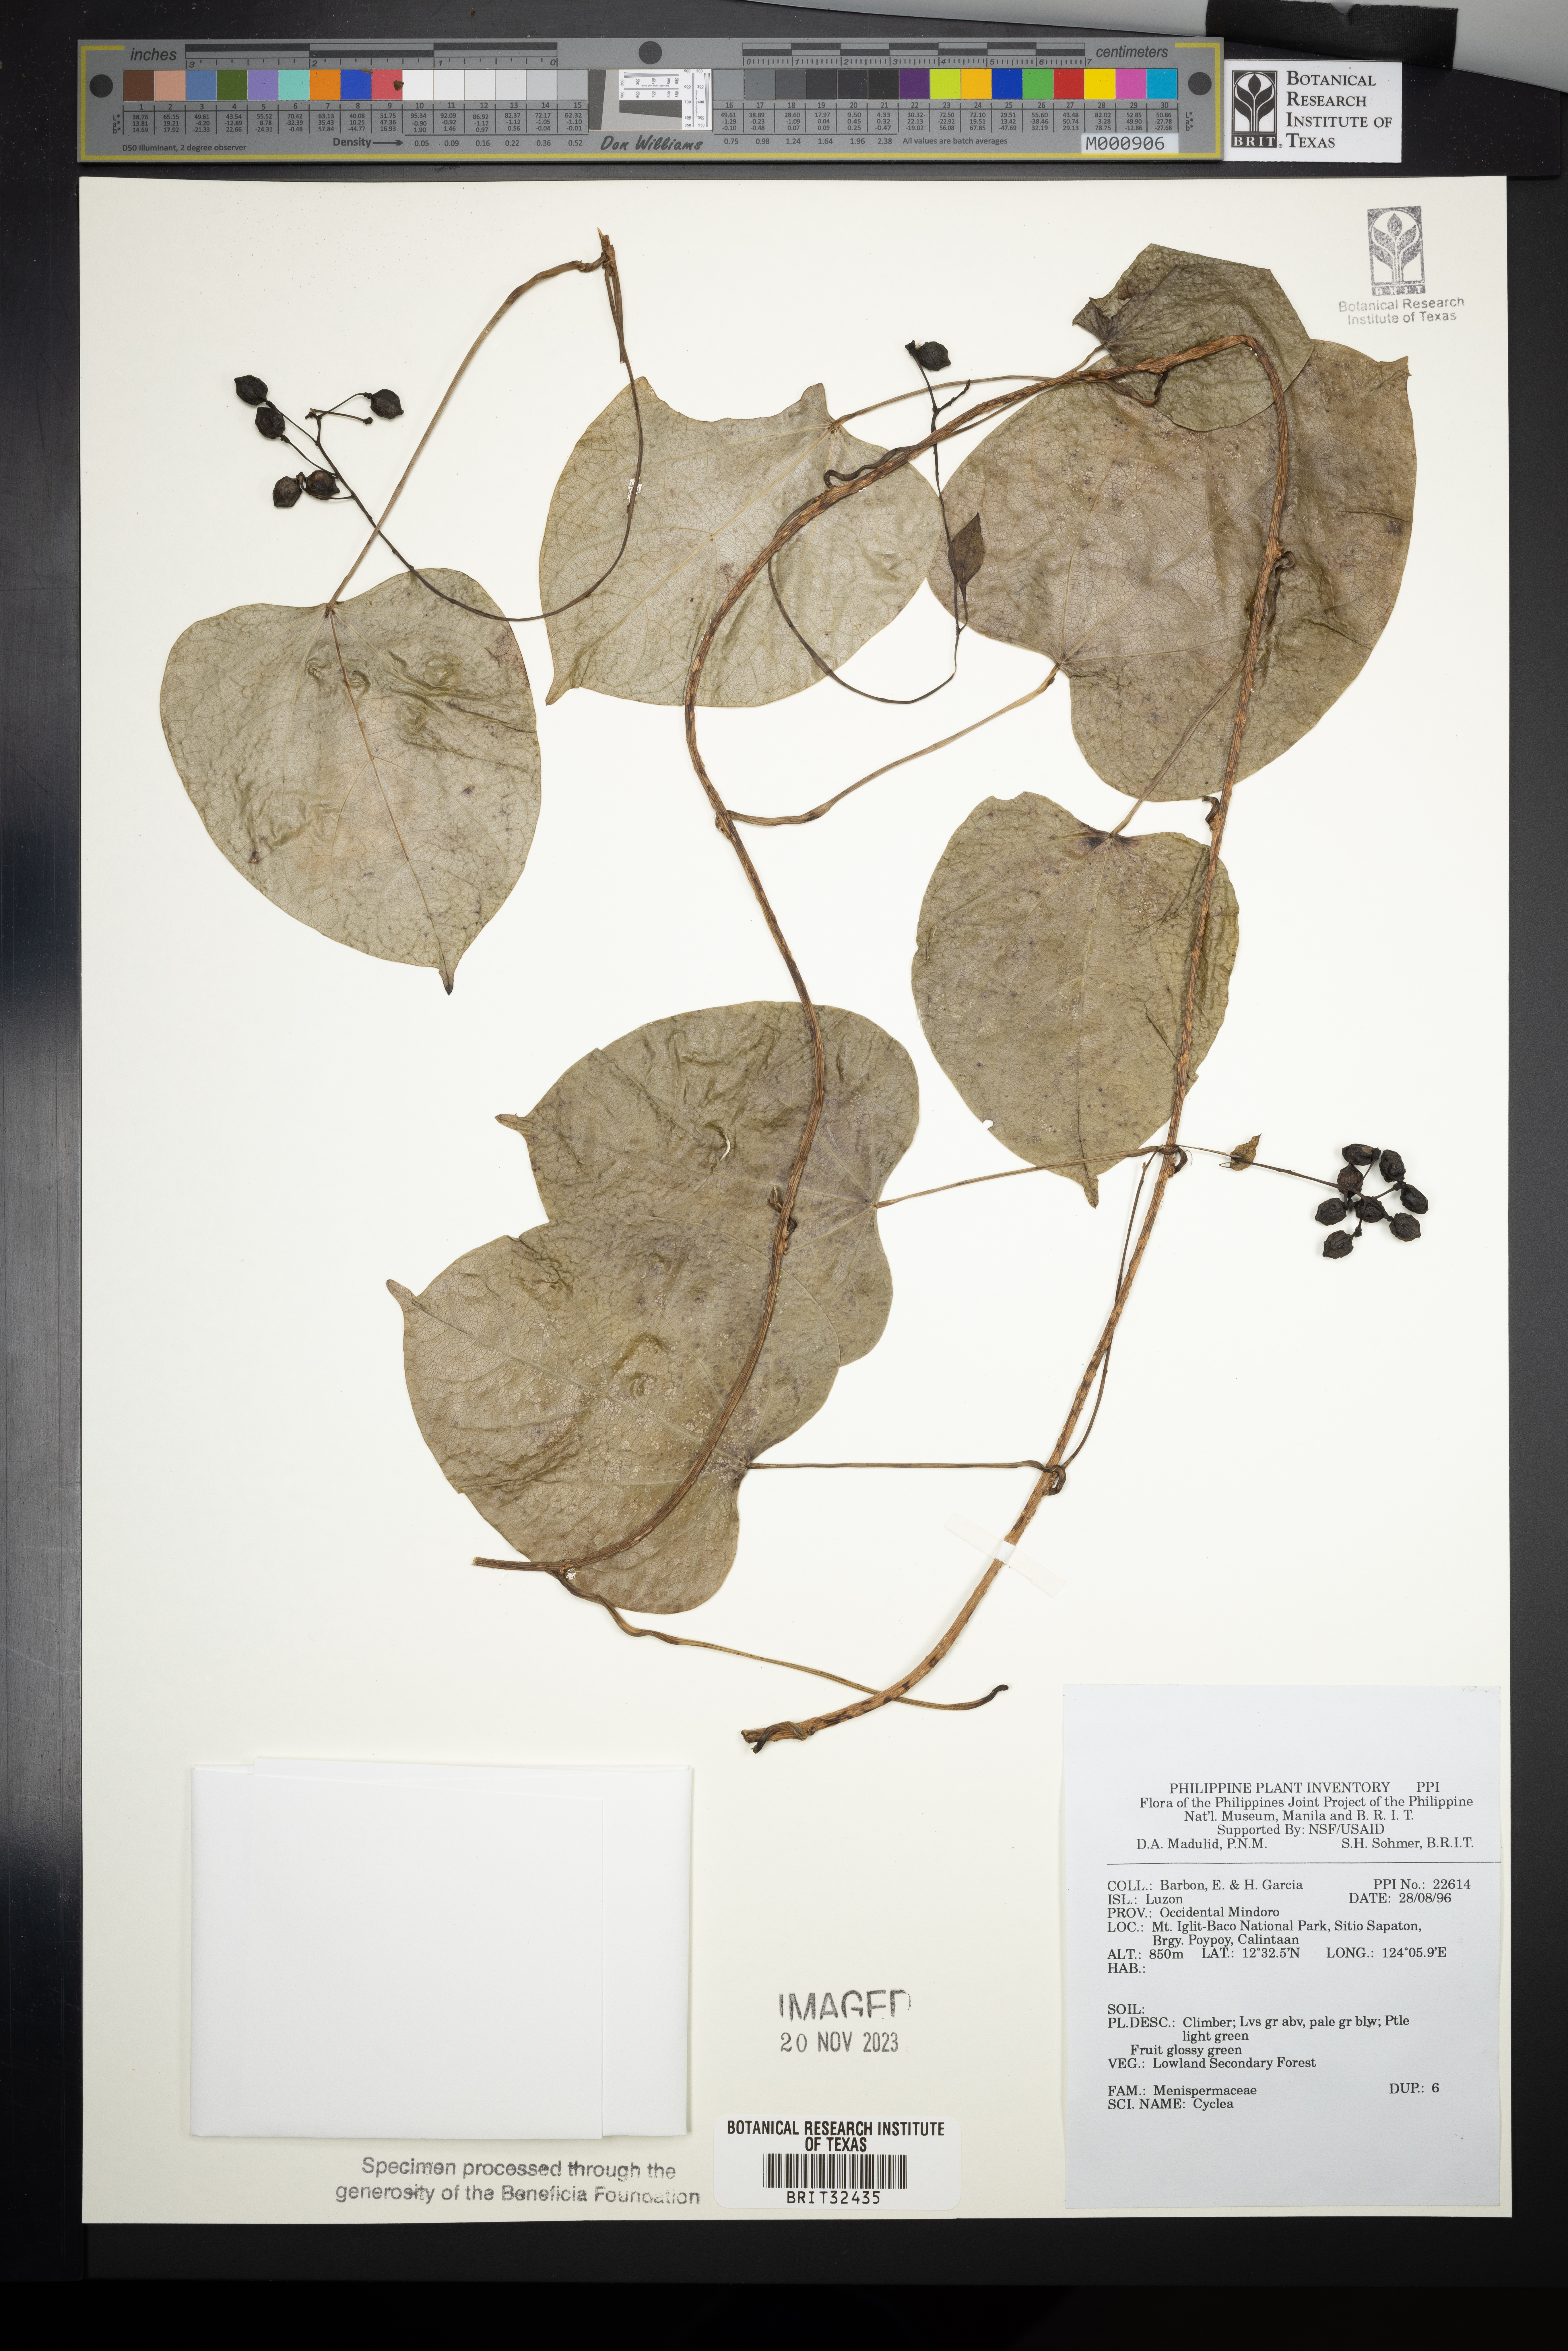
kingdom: Plantae
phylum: Tracheophyta
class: Magnoliopsida
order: Ranunculales
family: Menispermaceae
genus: Cyclea
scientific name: Cyclea
